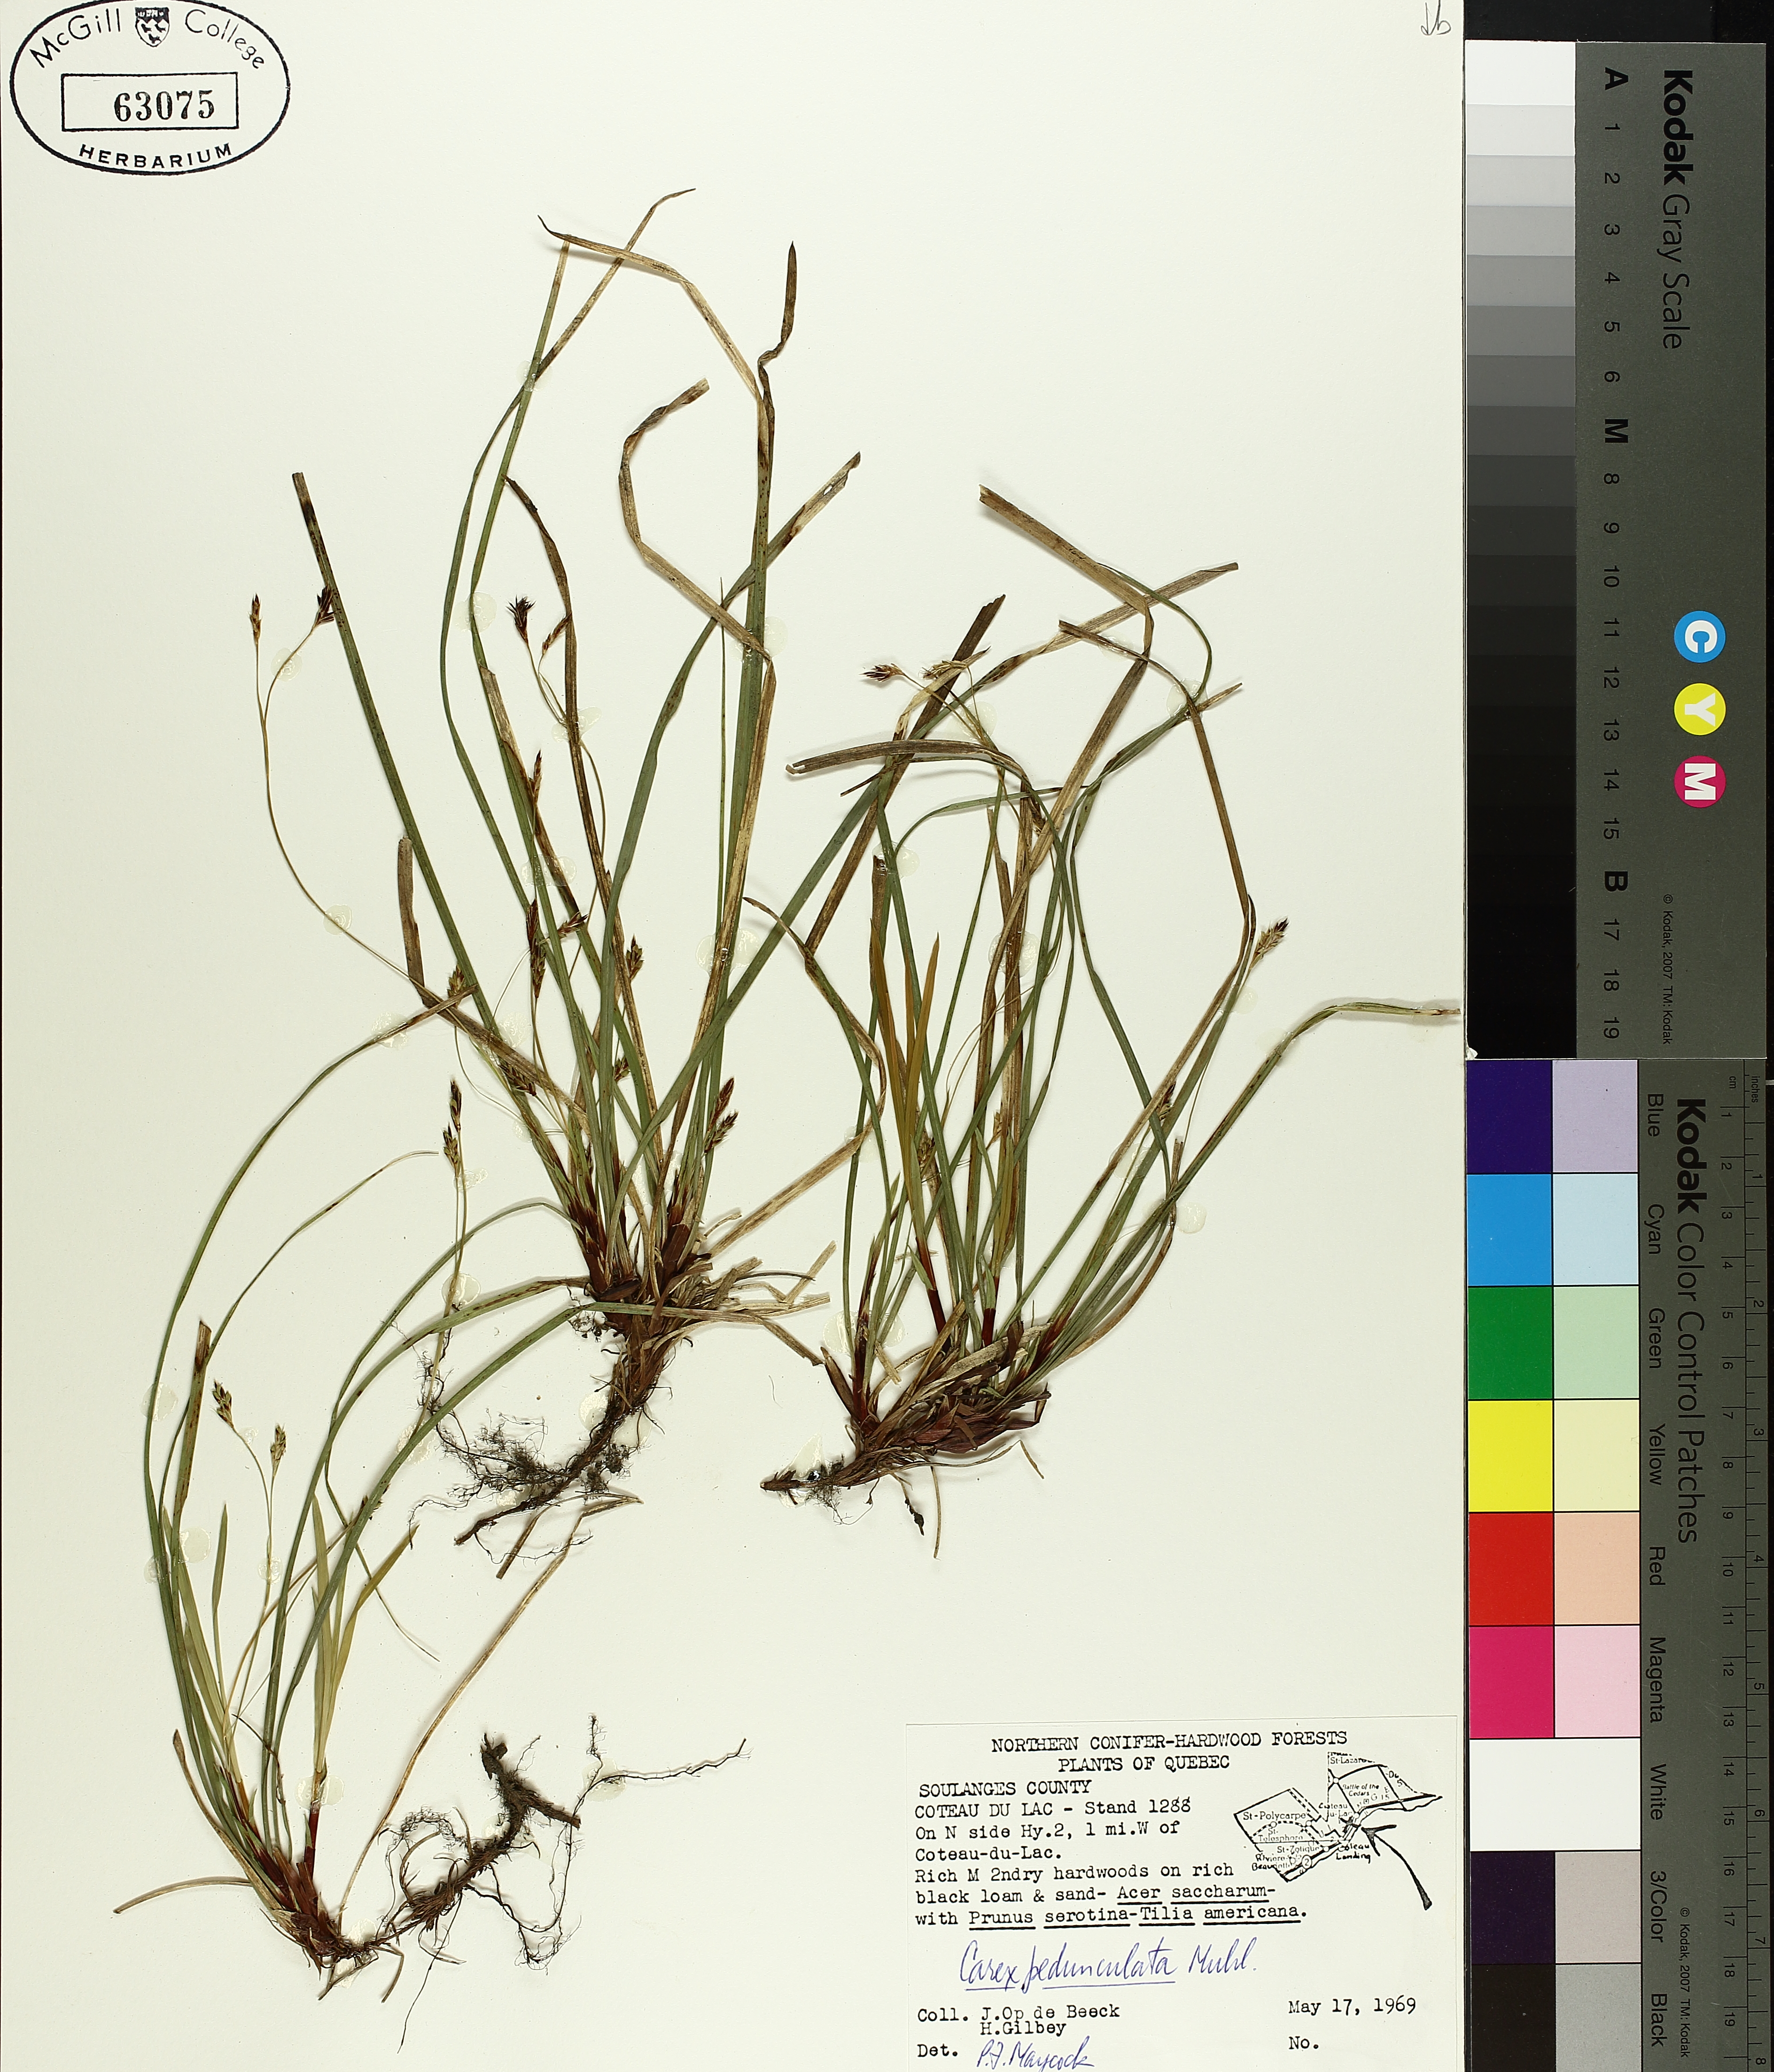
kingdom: Plantae
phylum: Tracheophyta
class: Liliopsida
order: Poales
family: Cyperaceae
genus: Carex
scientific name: Carex pedunculata
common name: Pedunculate sedge
